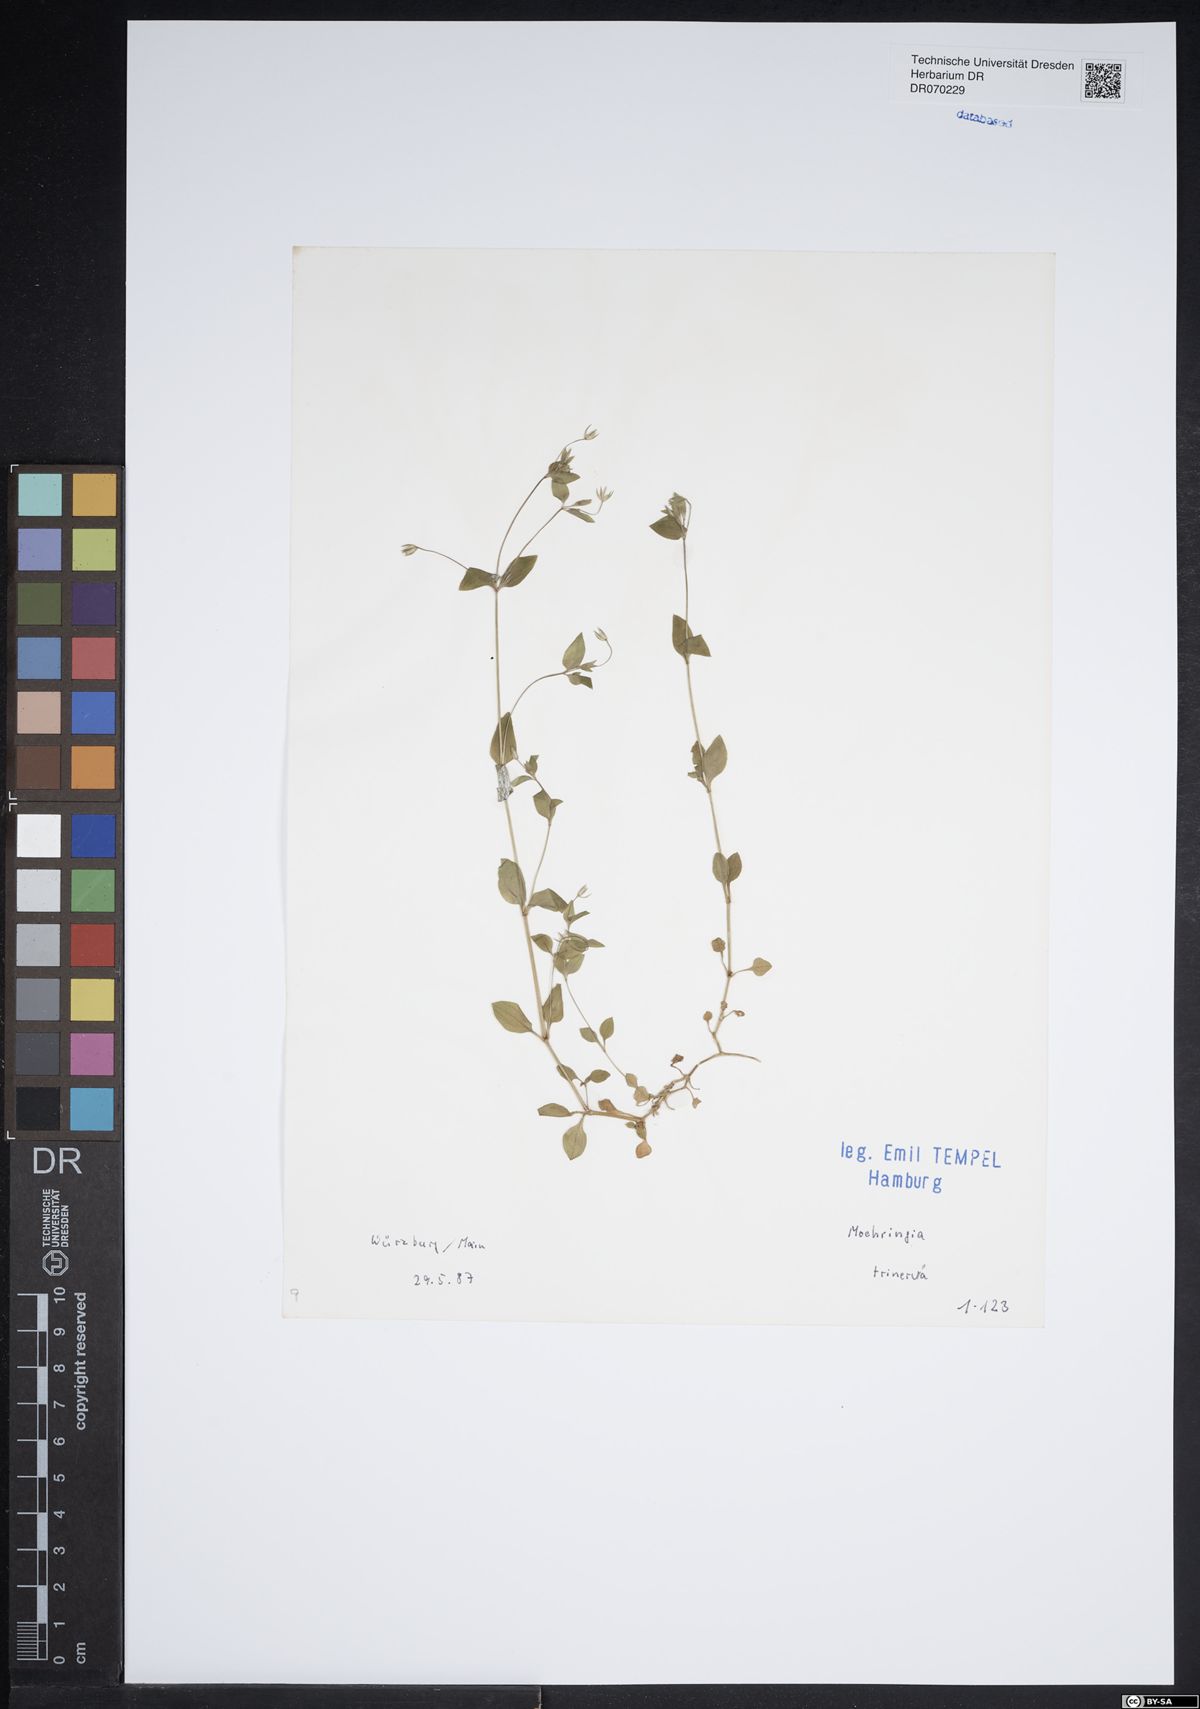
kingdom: Plantae
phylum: Tracheophyta
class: Magnoliopsida
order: Caryophyllales
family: Caryophyllaceae
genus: Moehringia
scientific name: Moehringia trinervia
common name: Three-nerved sandwort
